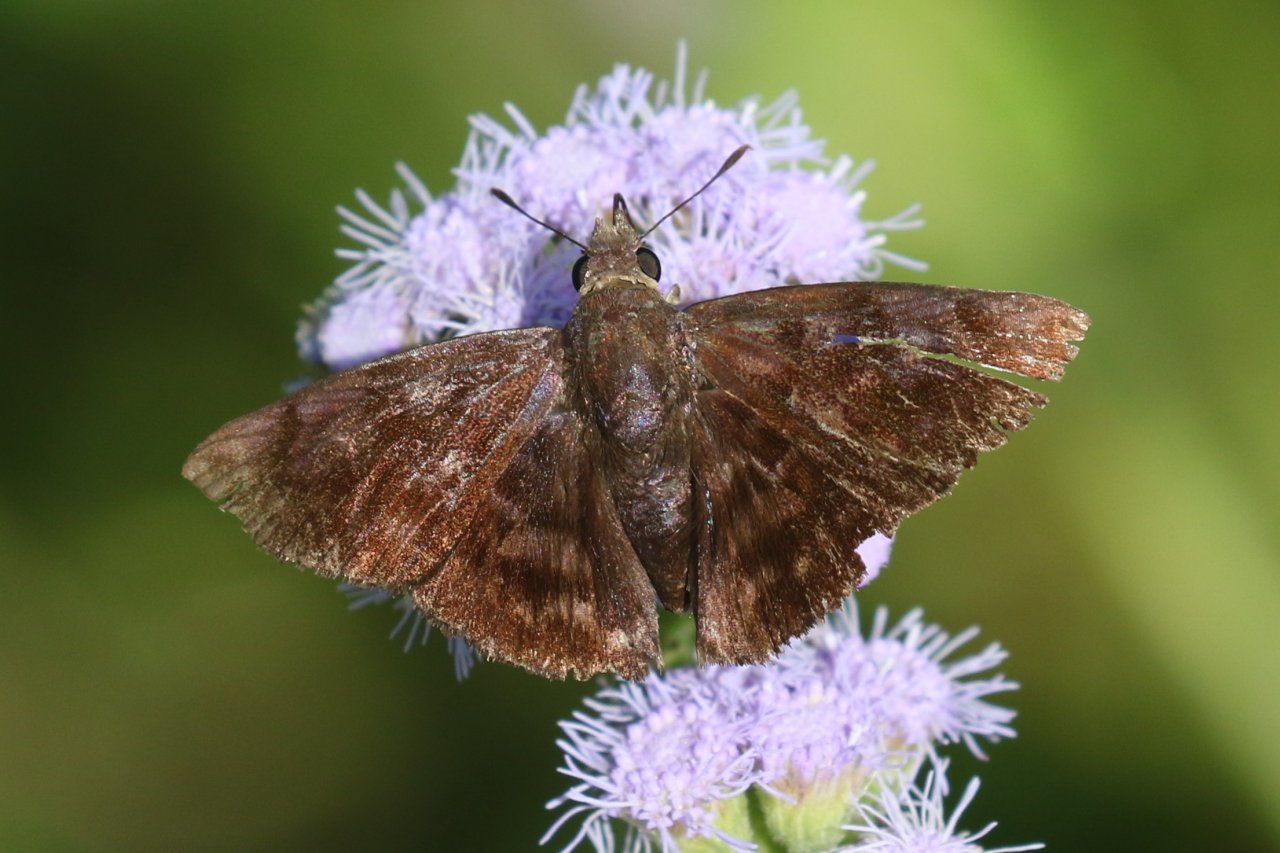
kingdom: Animalia
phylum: Arthropoda
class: Insecta
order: Lepidoptera
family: Hesperiidae
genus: Pellicia
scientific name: Pellicia costimacula
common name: Glazed Pellicia
